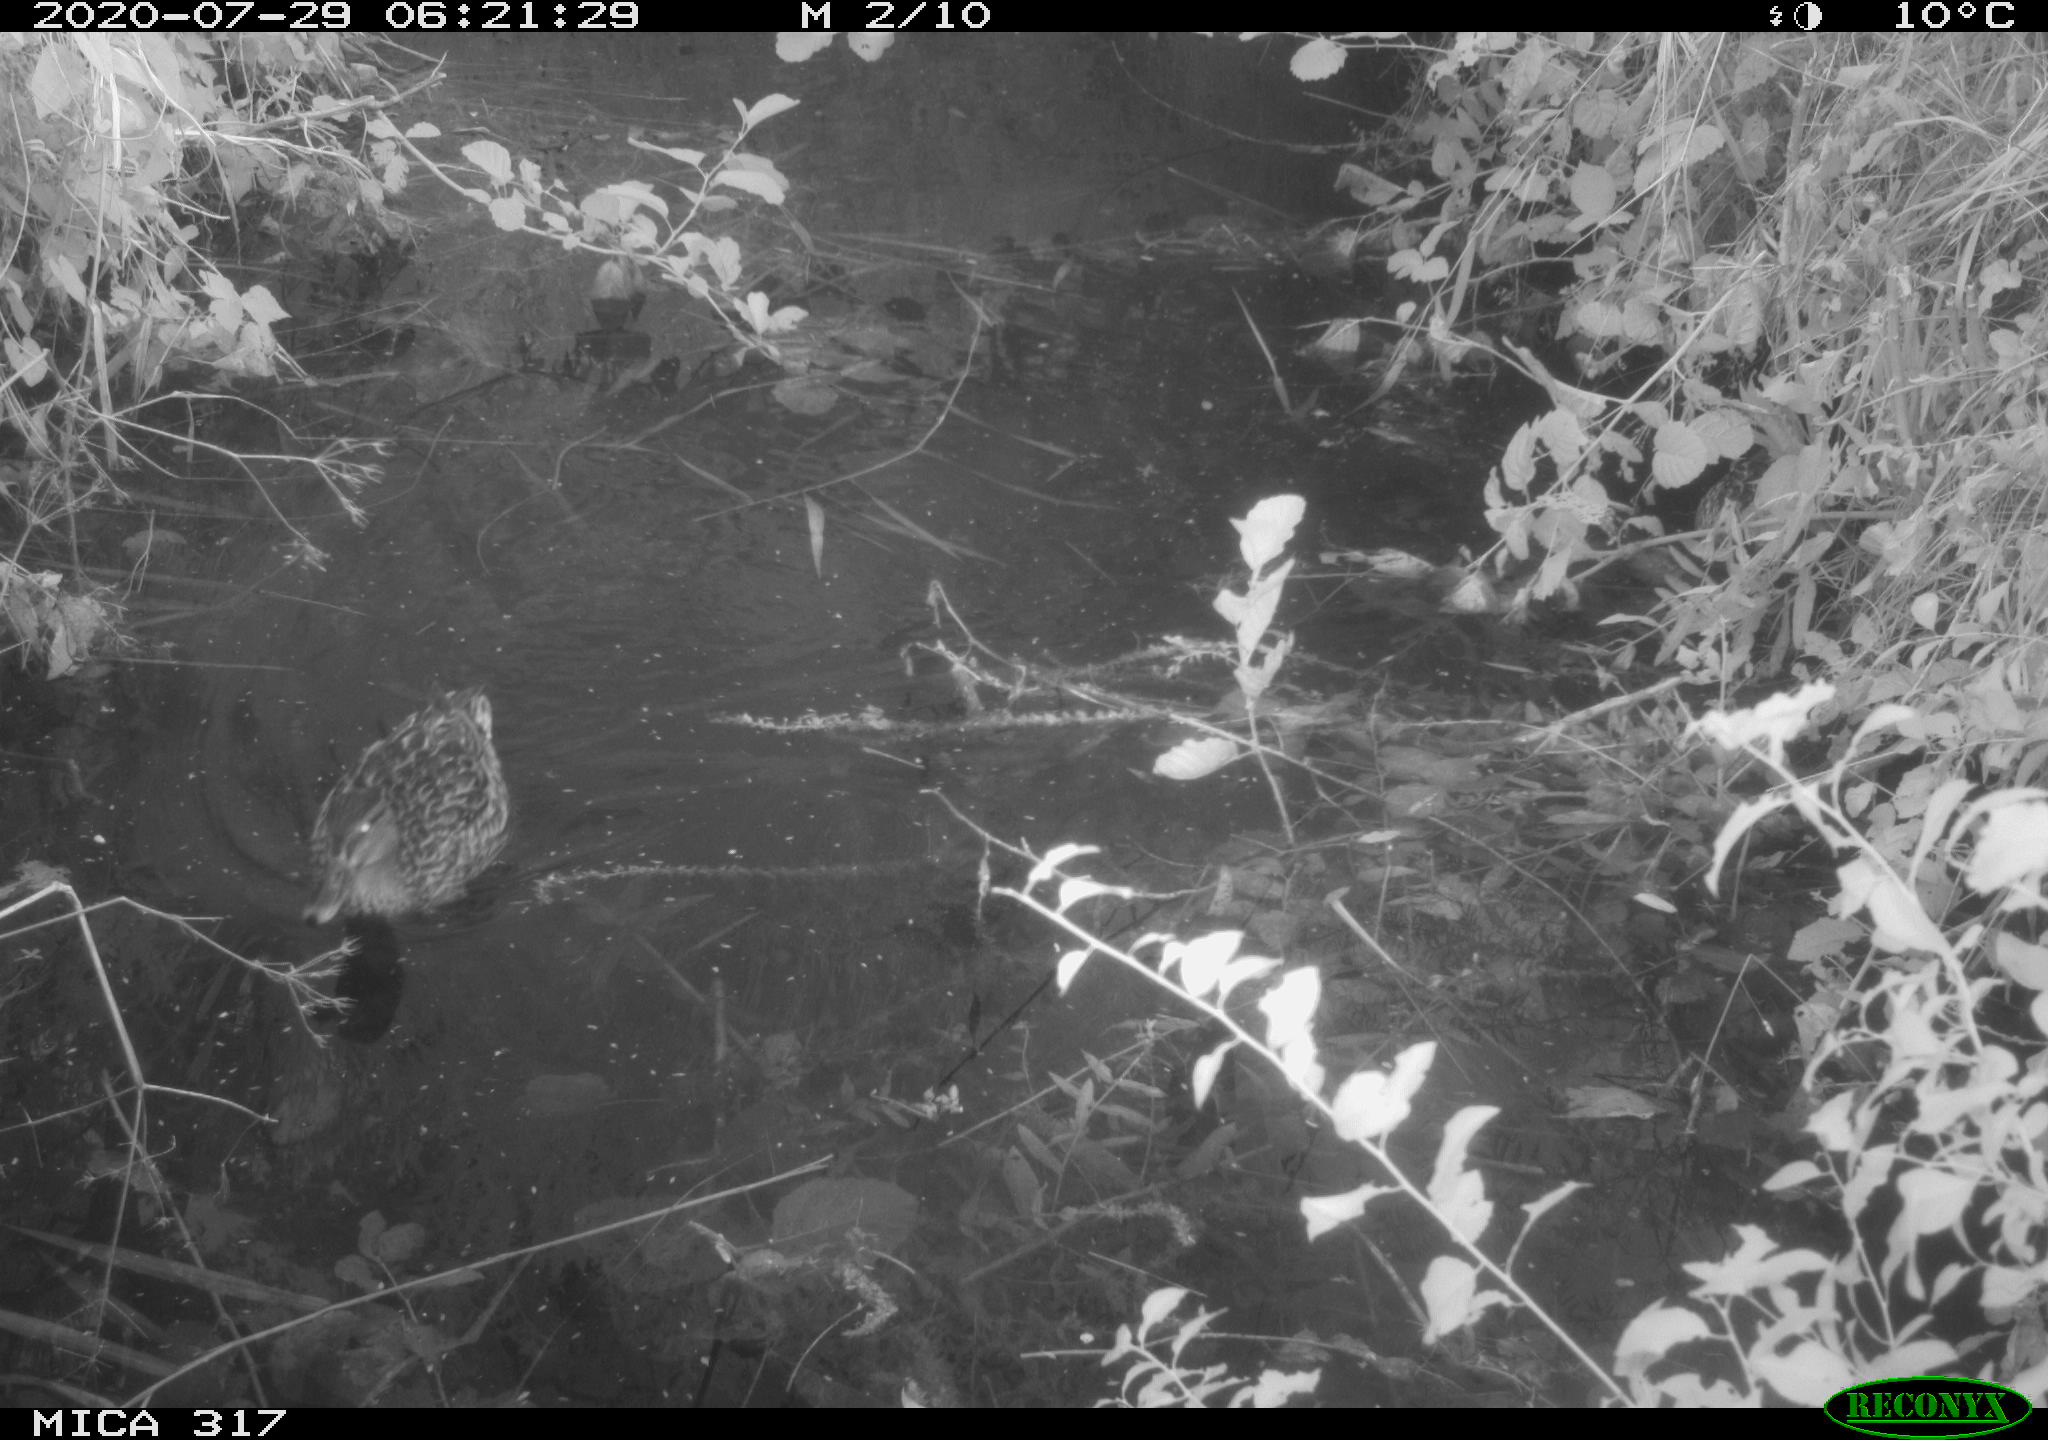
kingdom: Animalia
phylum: Chordata
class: Aves
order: Anseriformes
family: Anatidae
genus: Anas
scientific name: Anas platyrhynchos
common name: Mallard
